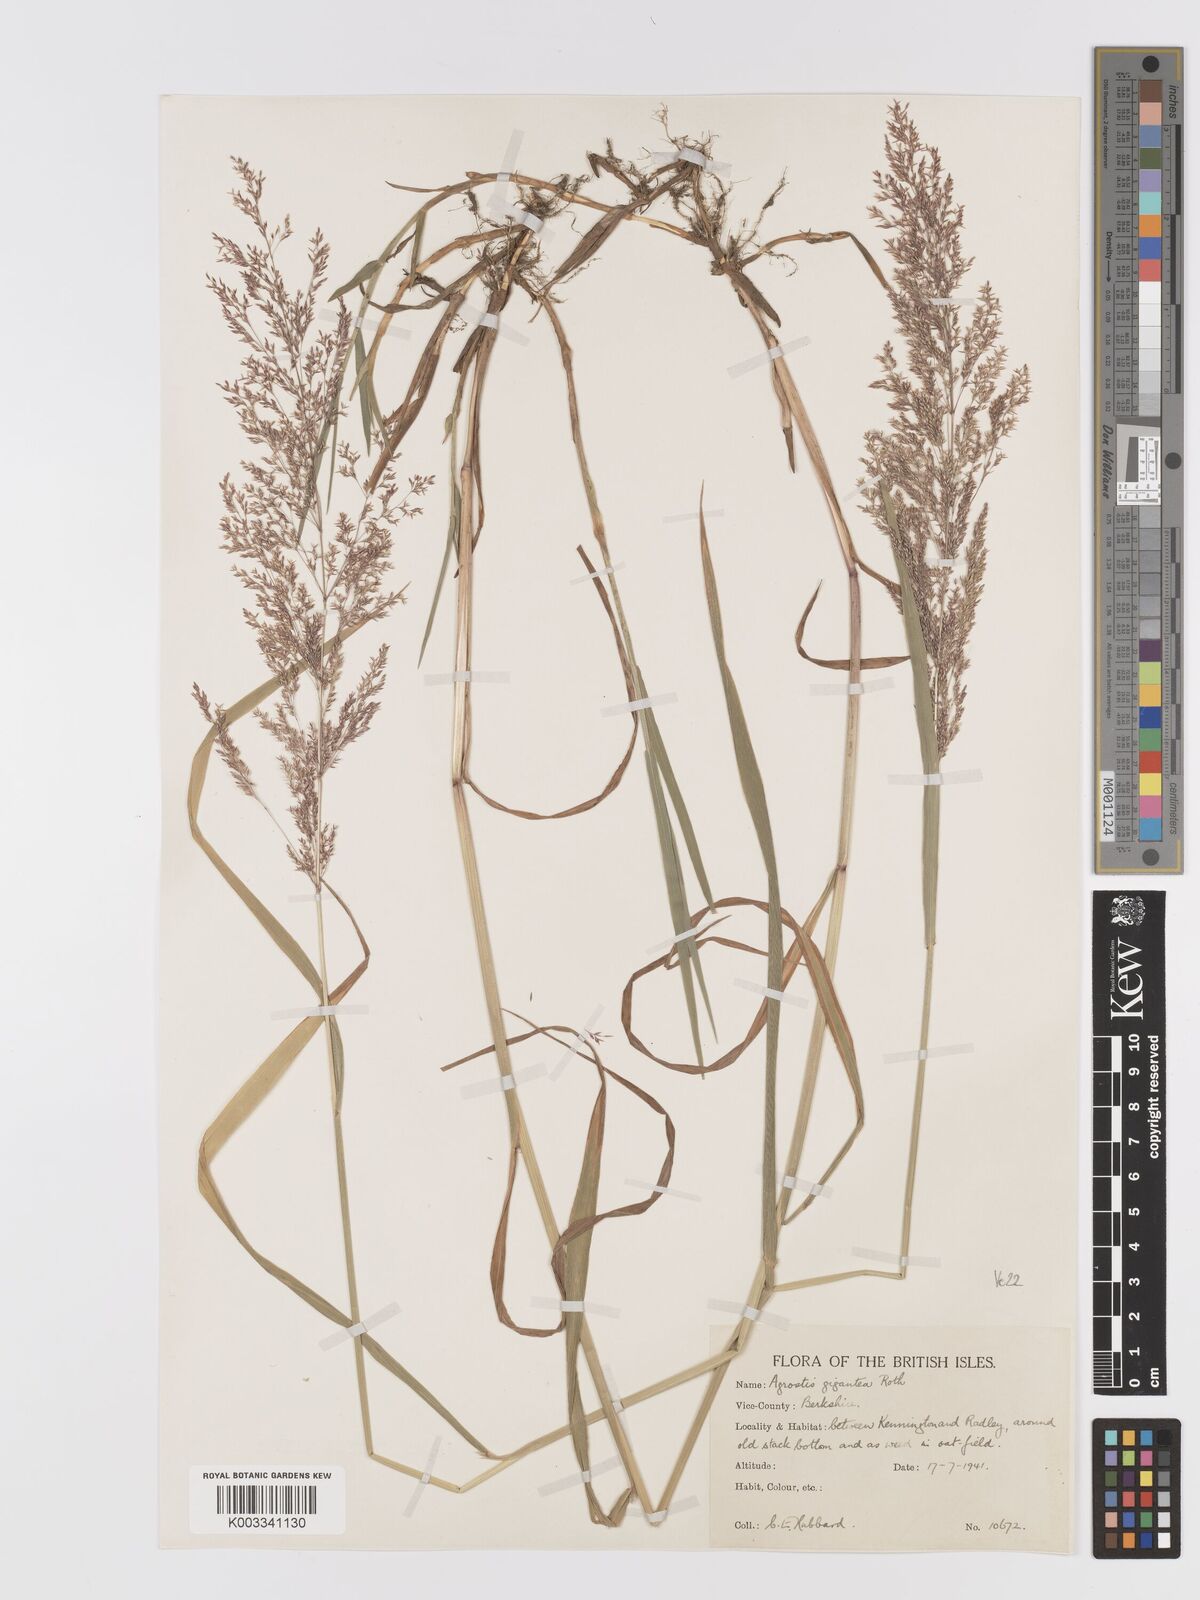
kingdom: Plantae
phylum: Tracheophyta
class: Liliopsida
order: Poales
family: Poaceae
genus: Agrostis
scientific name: Agrostis gigantea
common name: Black bent
